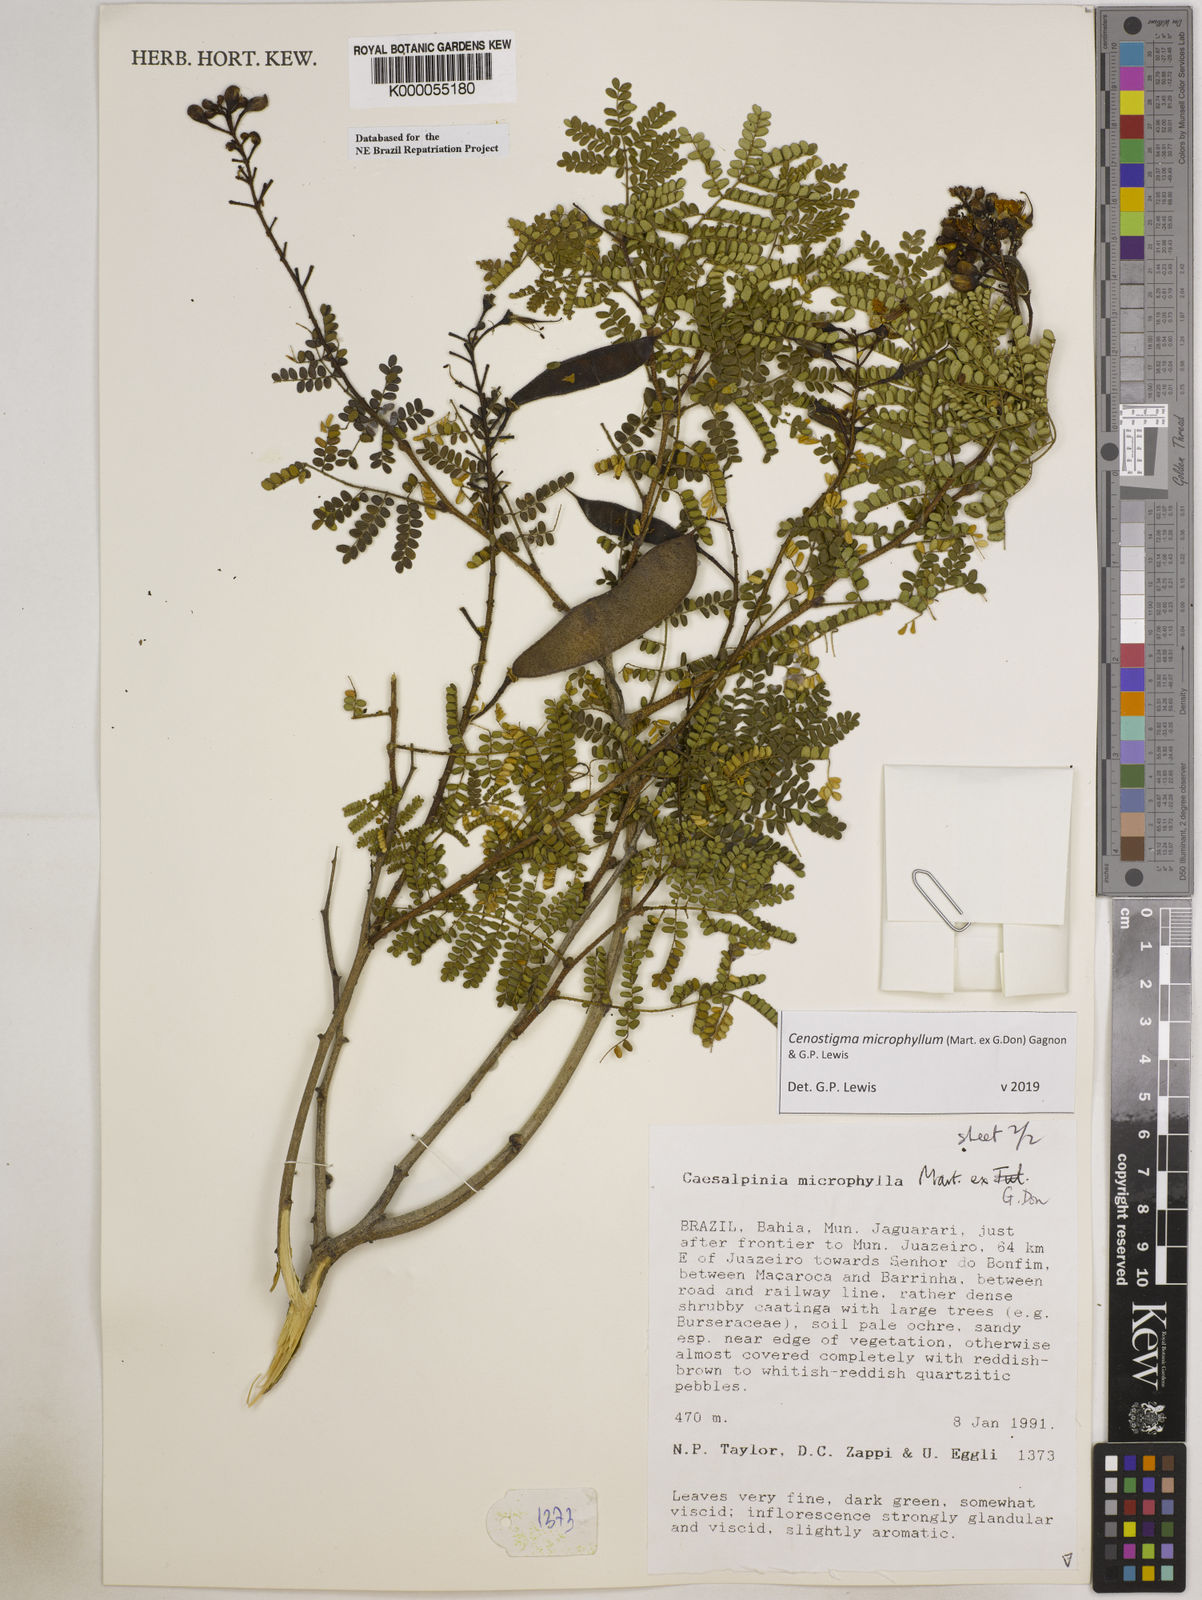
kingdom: Plantae
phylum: Tracheophyta
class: Magnoliopsida
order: Fabales
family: Fabaceae
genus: Cenostigma
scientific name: Cenostigma microphyllum
